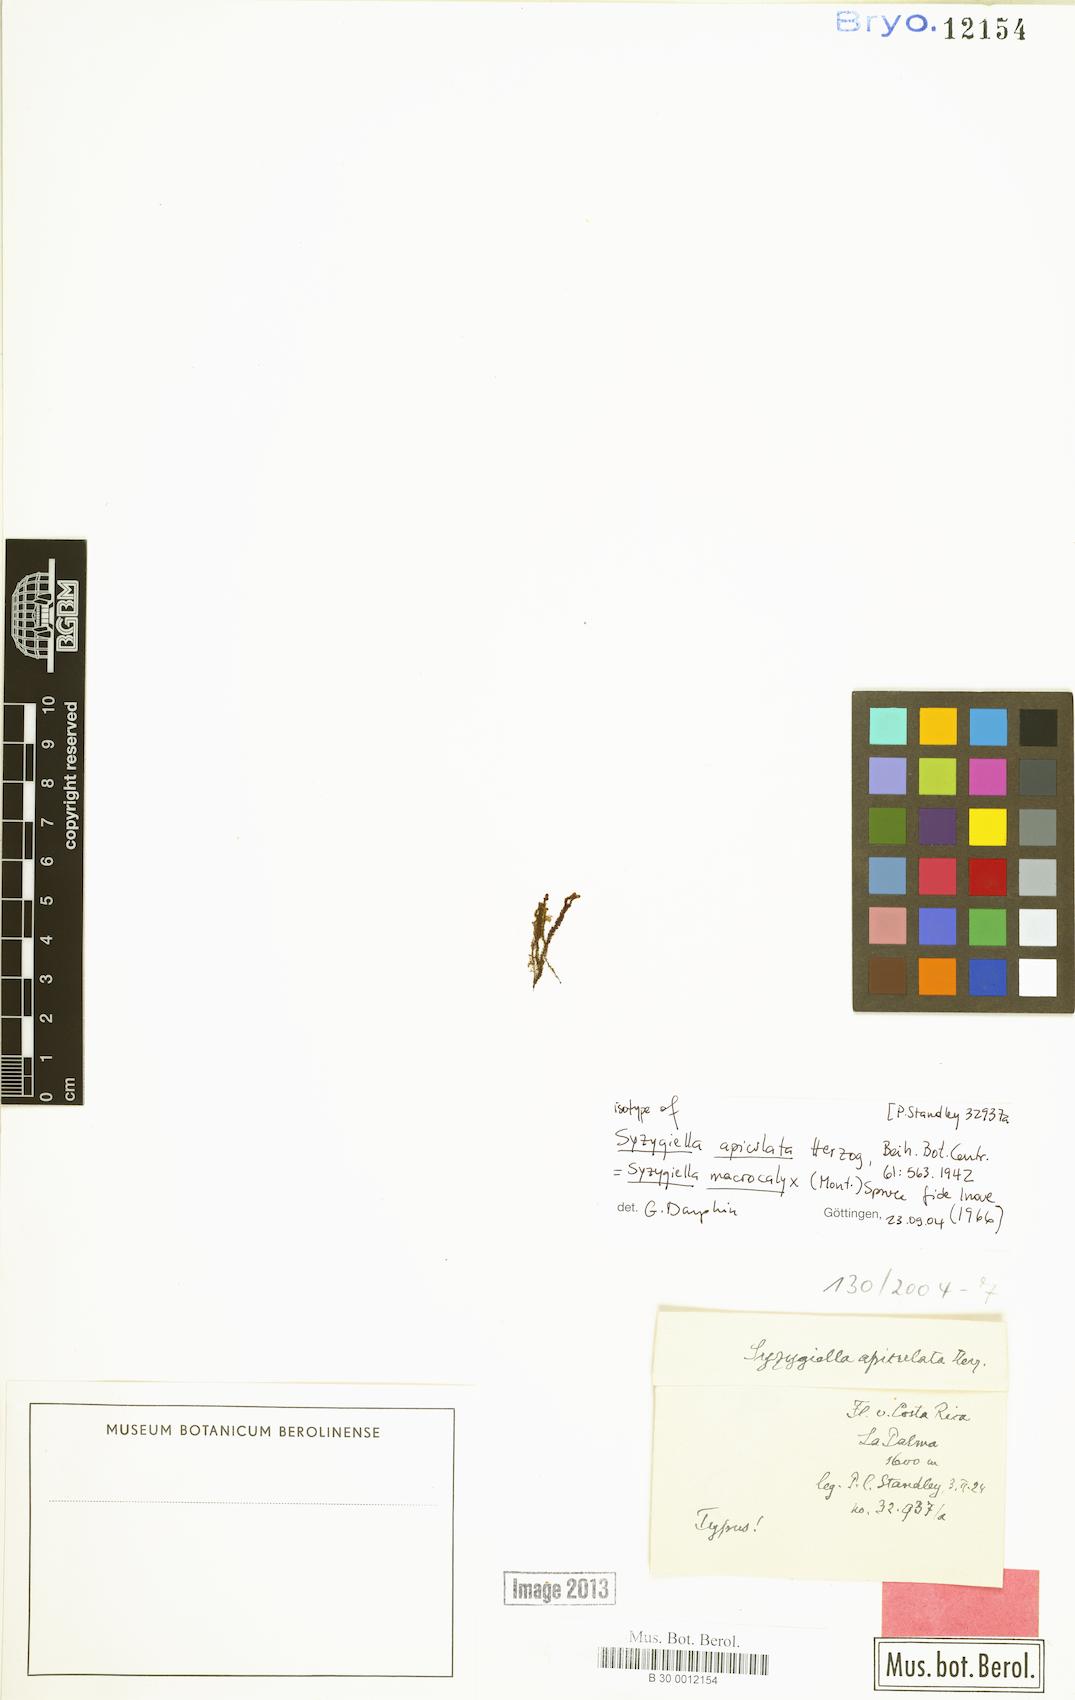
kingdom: Plantae
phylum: Marchantiophyta
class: Jungermanniopsida
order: Jungermanniales
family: Adelanthaceae
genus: Syzygiella
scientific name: Syzygiella macrocalyx
